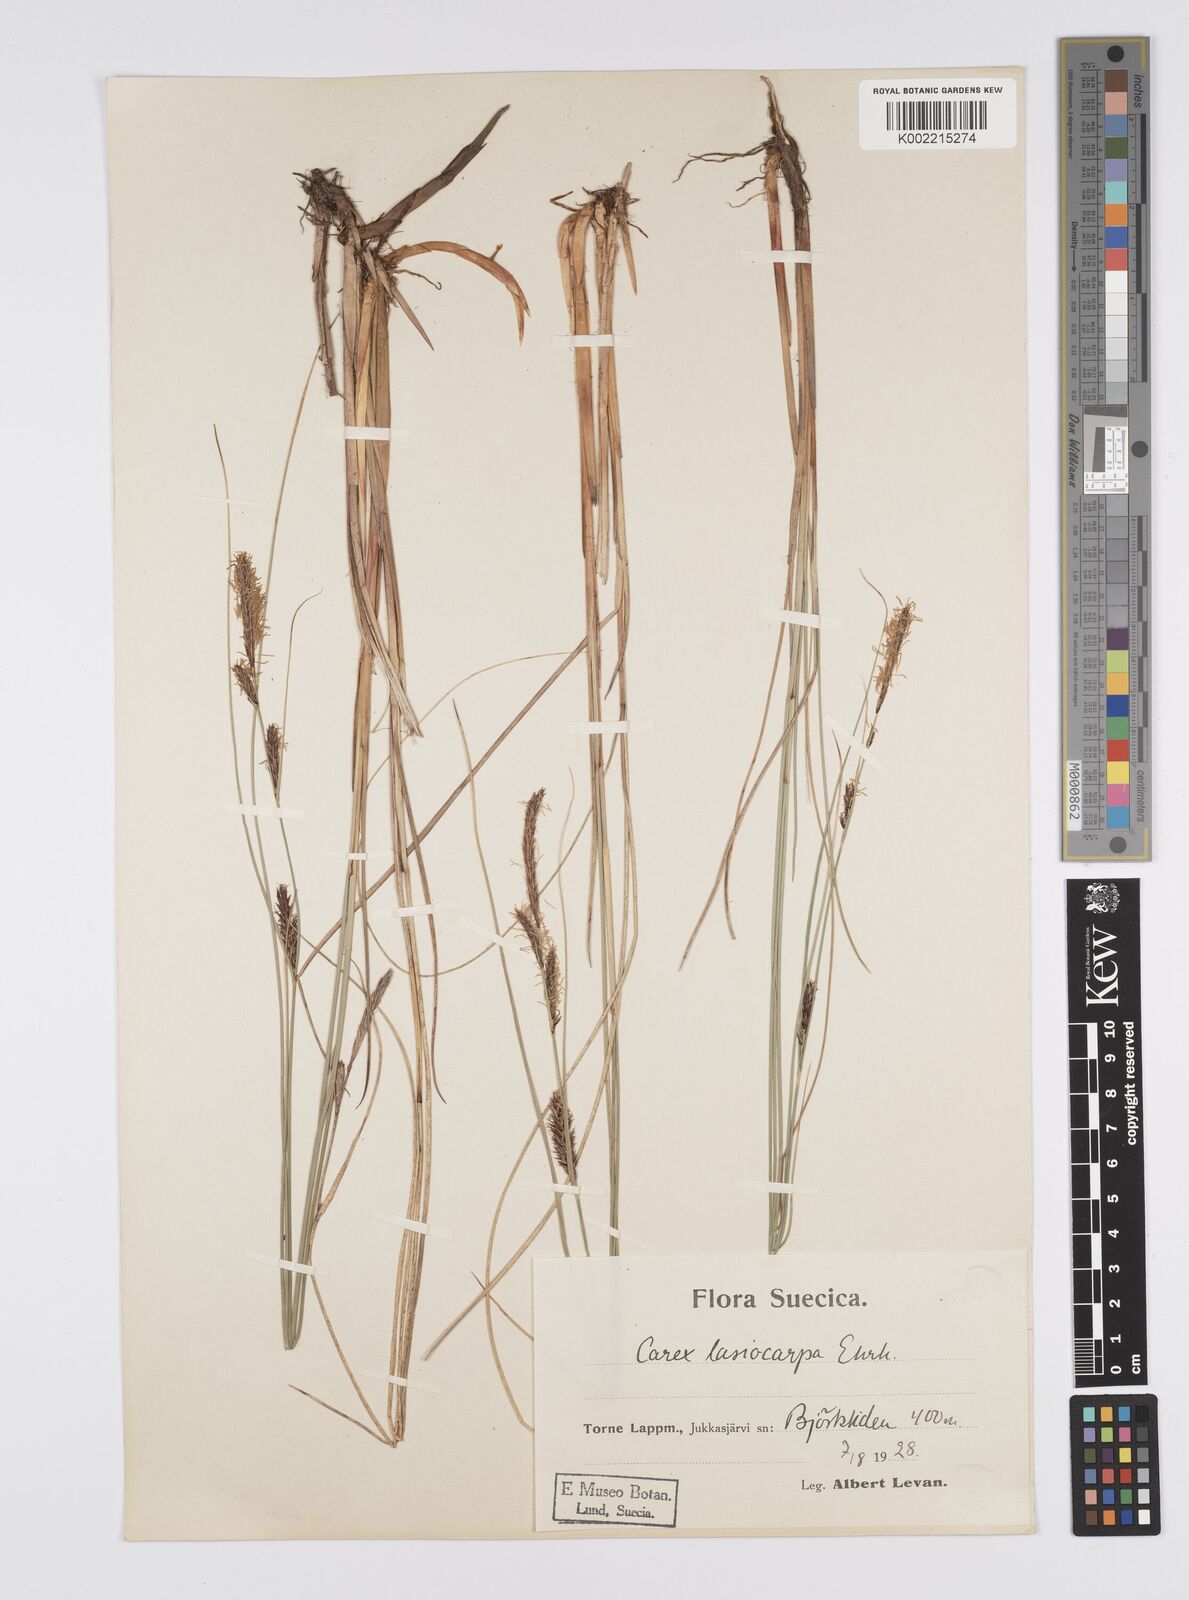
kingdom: Plantae
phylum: Tracheophyta
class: Liliopsida
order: Poales
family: Cyperaceae
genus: Carex
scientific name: Carex lasiocarpa
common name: Slender sedge
